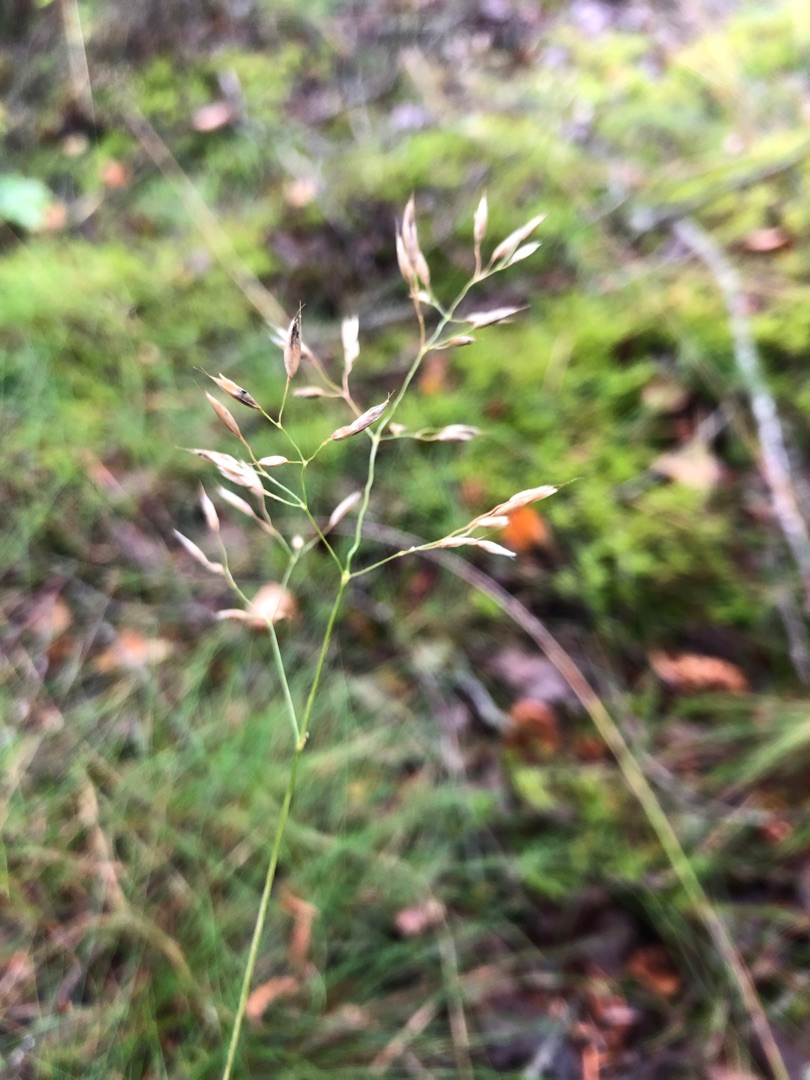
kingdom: Plantae
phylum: Tracheophyta
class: Liliopsida
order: Poales
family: Poaceae
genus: Avenella
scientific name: Avenella flexuosa
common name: Bølget bunke
